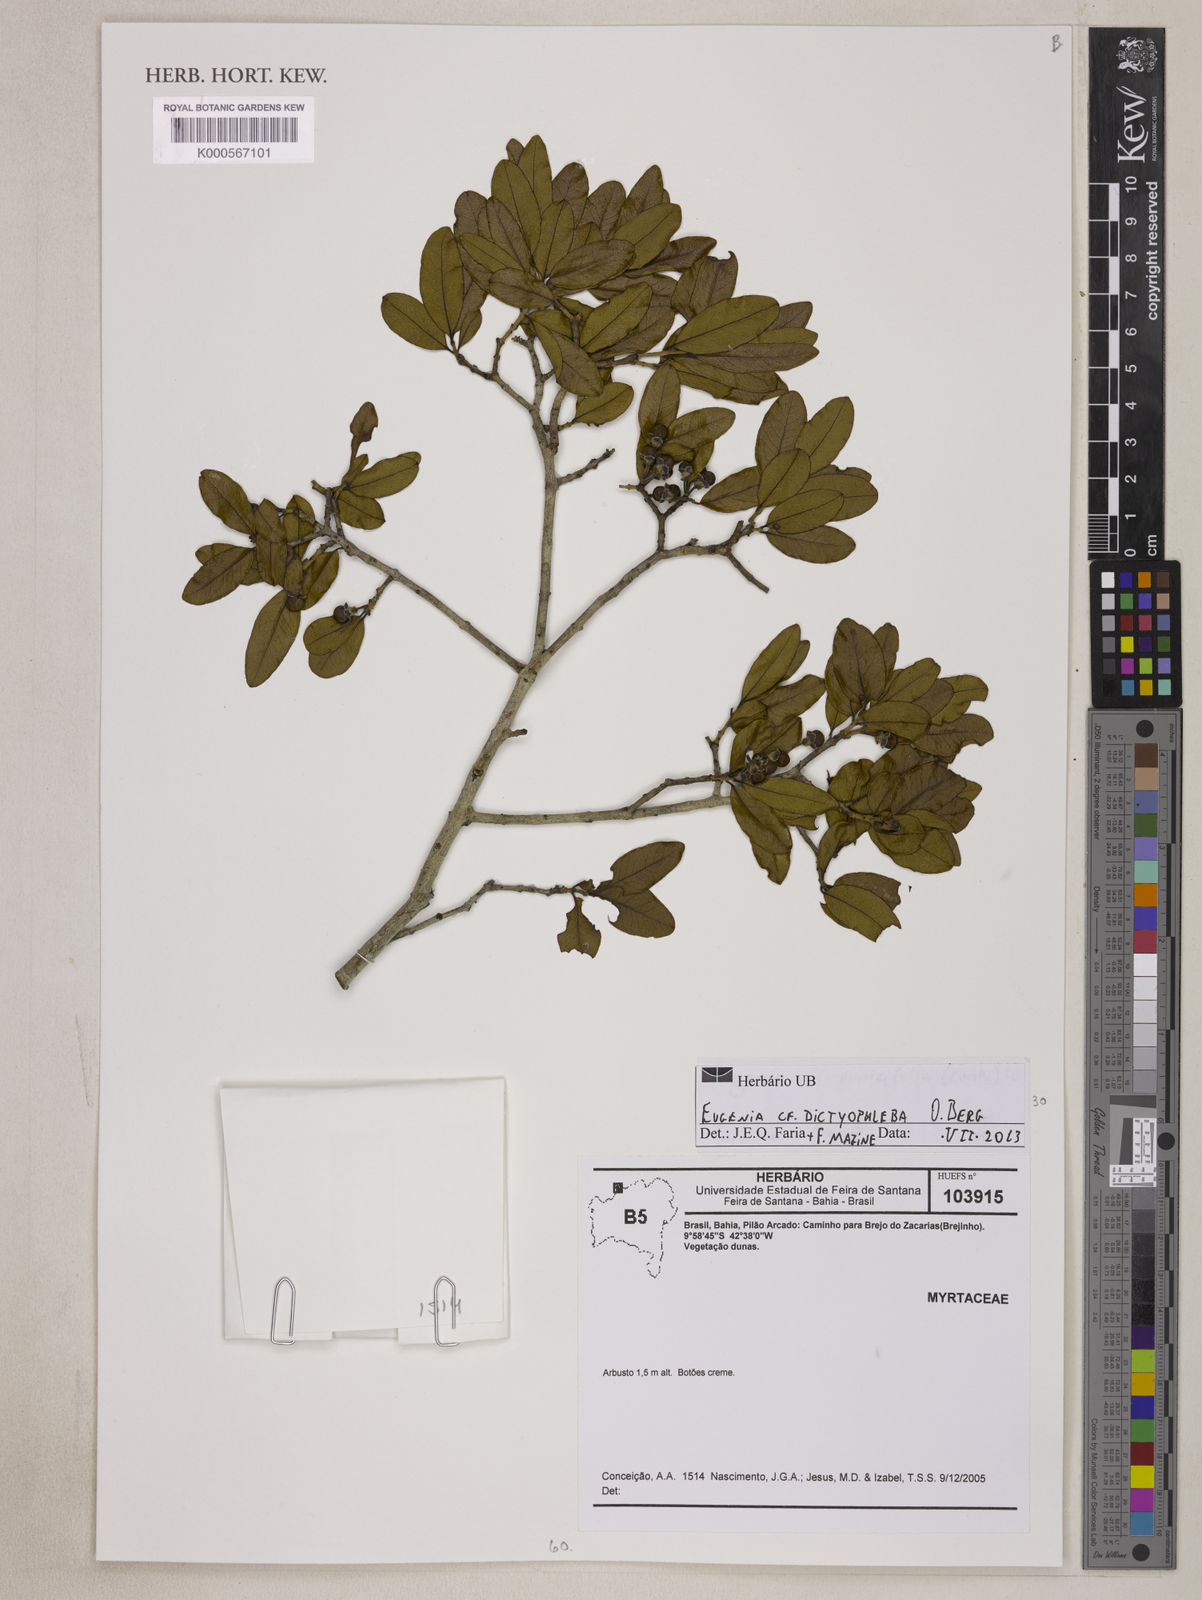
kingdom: Plantae
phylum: Tracheophyta
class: Magnoliopsida
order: Myrtales
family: Myrtaceae
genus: Eugenia
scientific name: Eugenia dictyophleba
